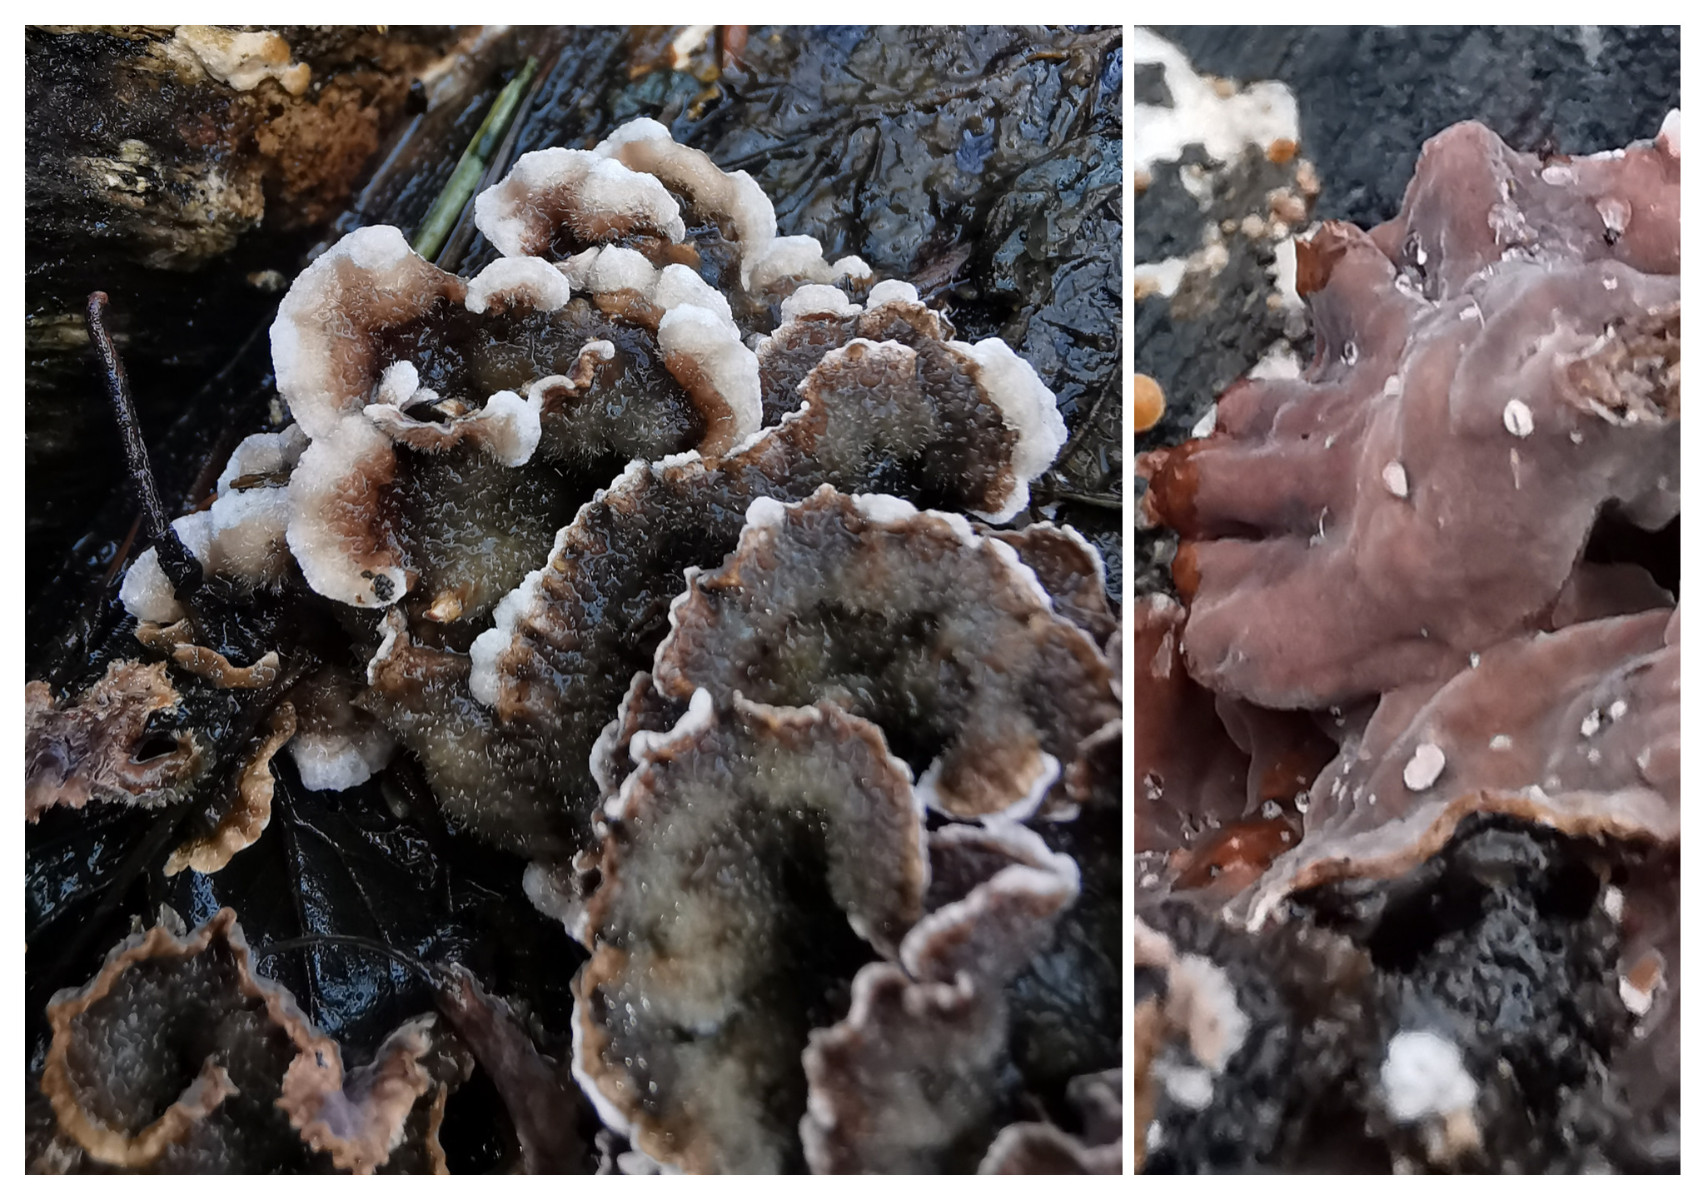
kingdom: Fungi
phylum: Basidiomycota
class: Agaricomycetes
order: Agaricales
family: Cyphellaceae
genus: Chondrostereum
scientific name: Chondrostereum purpureum
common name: purpurlædersvamp
